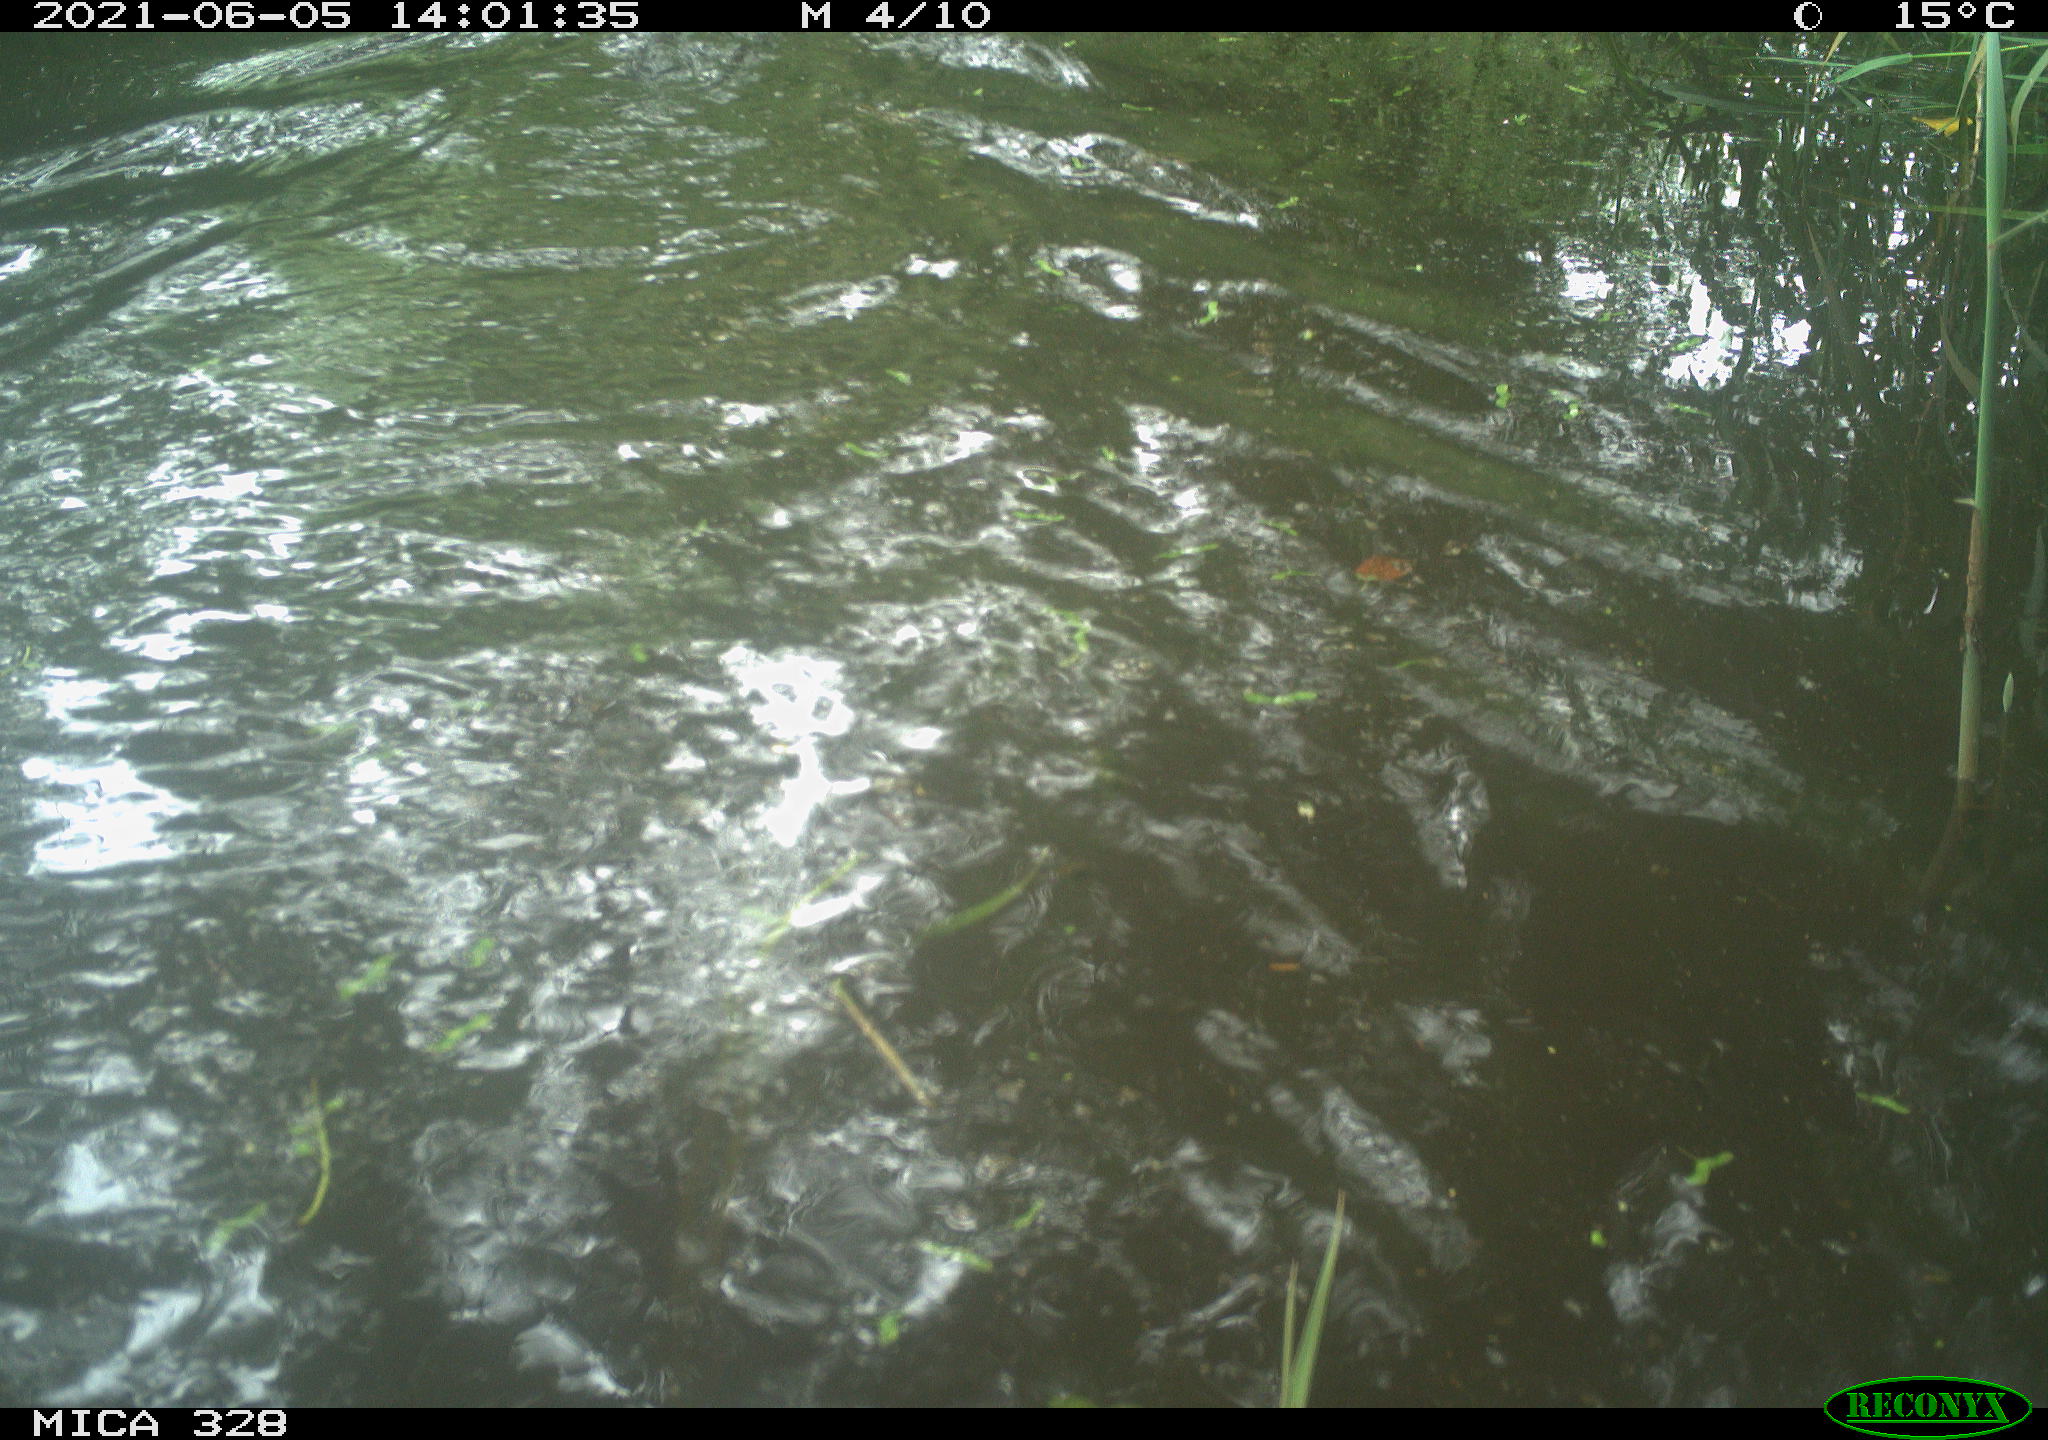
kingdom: Animalia
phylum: Chordata
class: Mammalia
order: Rodentia
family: Cricetidae
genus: Ondatra
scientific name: Ondatra zibethicus
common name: Muskrat
